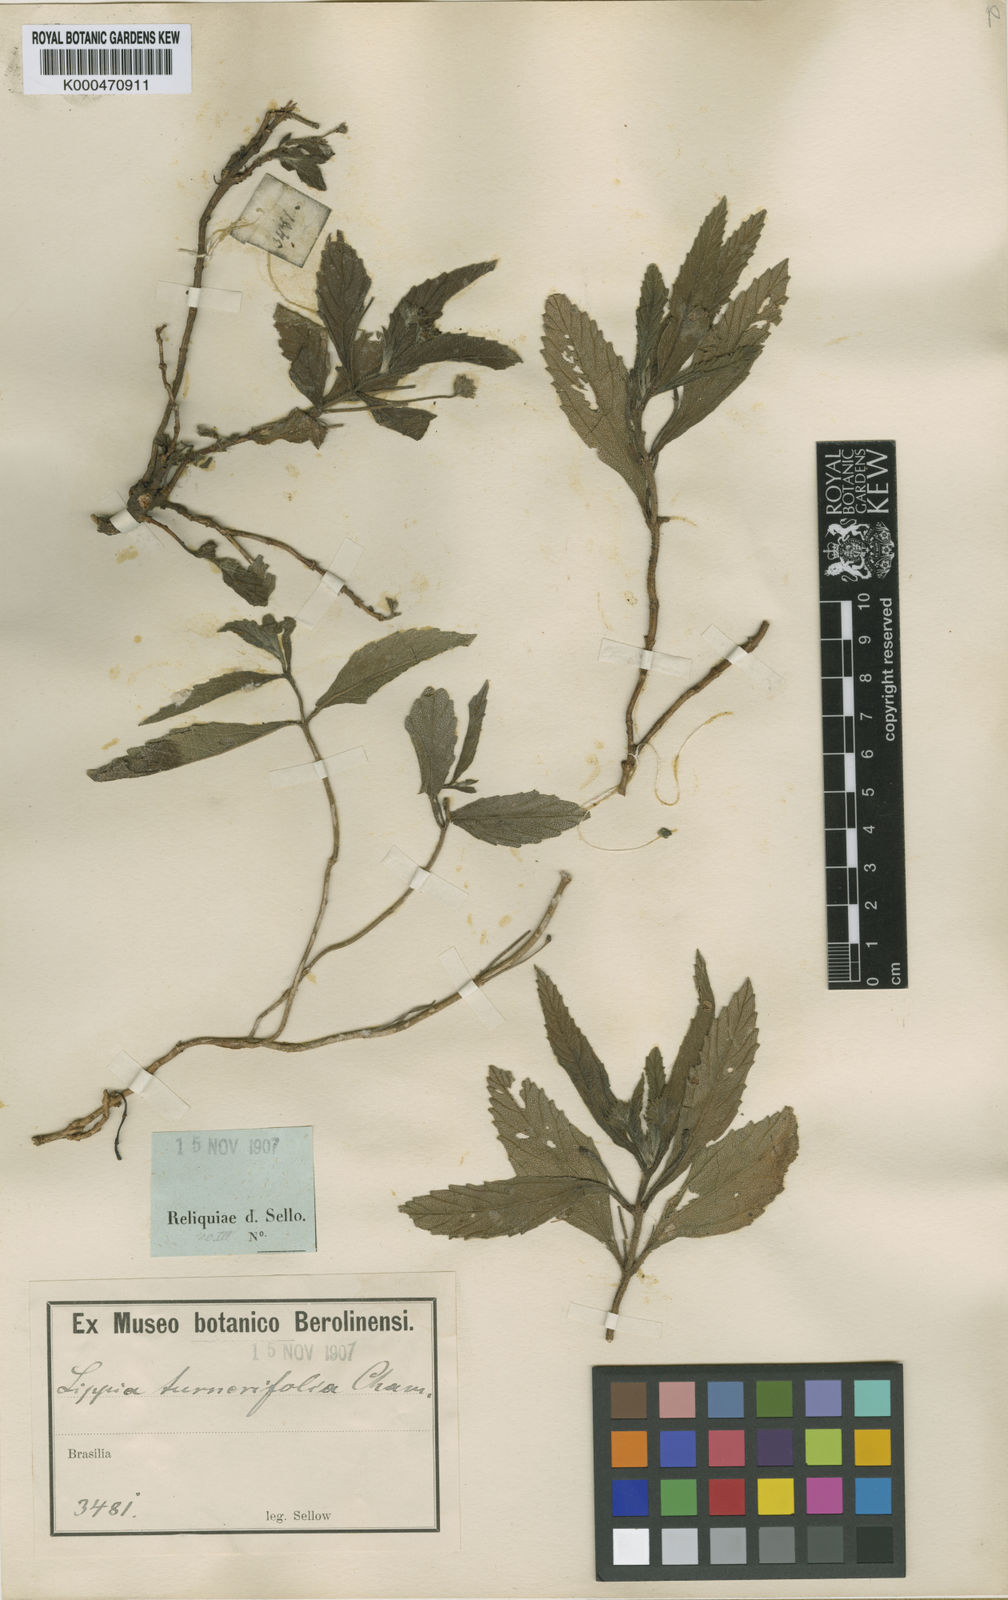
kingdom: Plantae
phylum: Tracheophyta
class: Magnoliopsida
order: Lamiales
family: Verbenaceae
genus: Lippia
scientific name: Lippia turnerifolia
